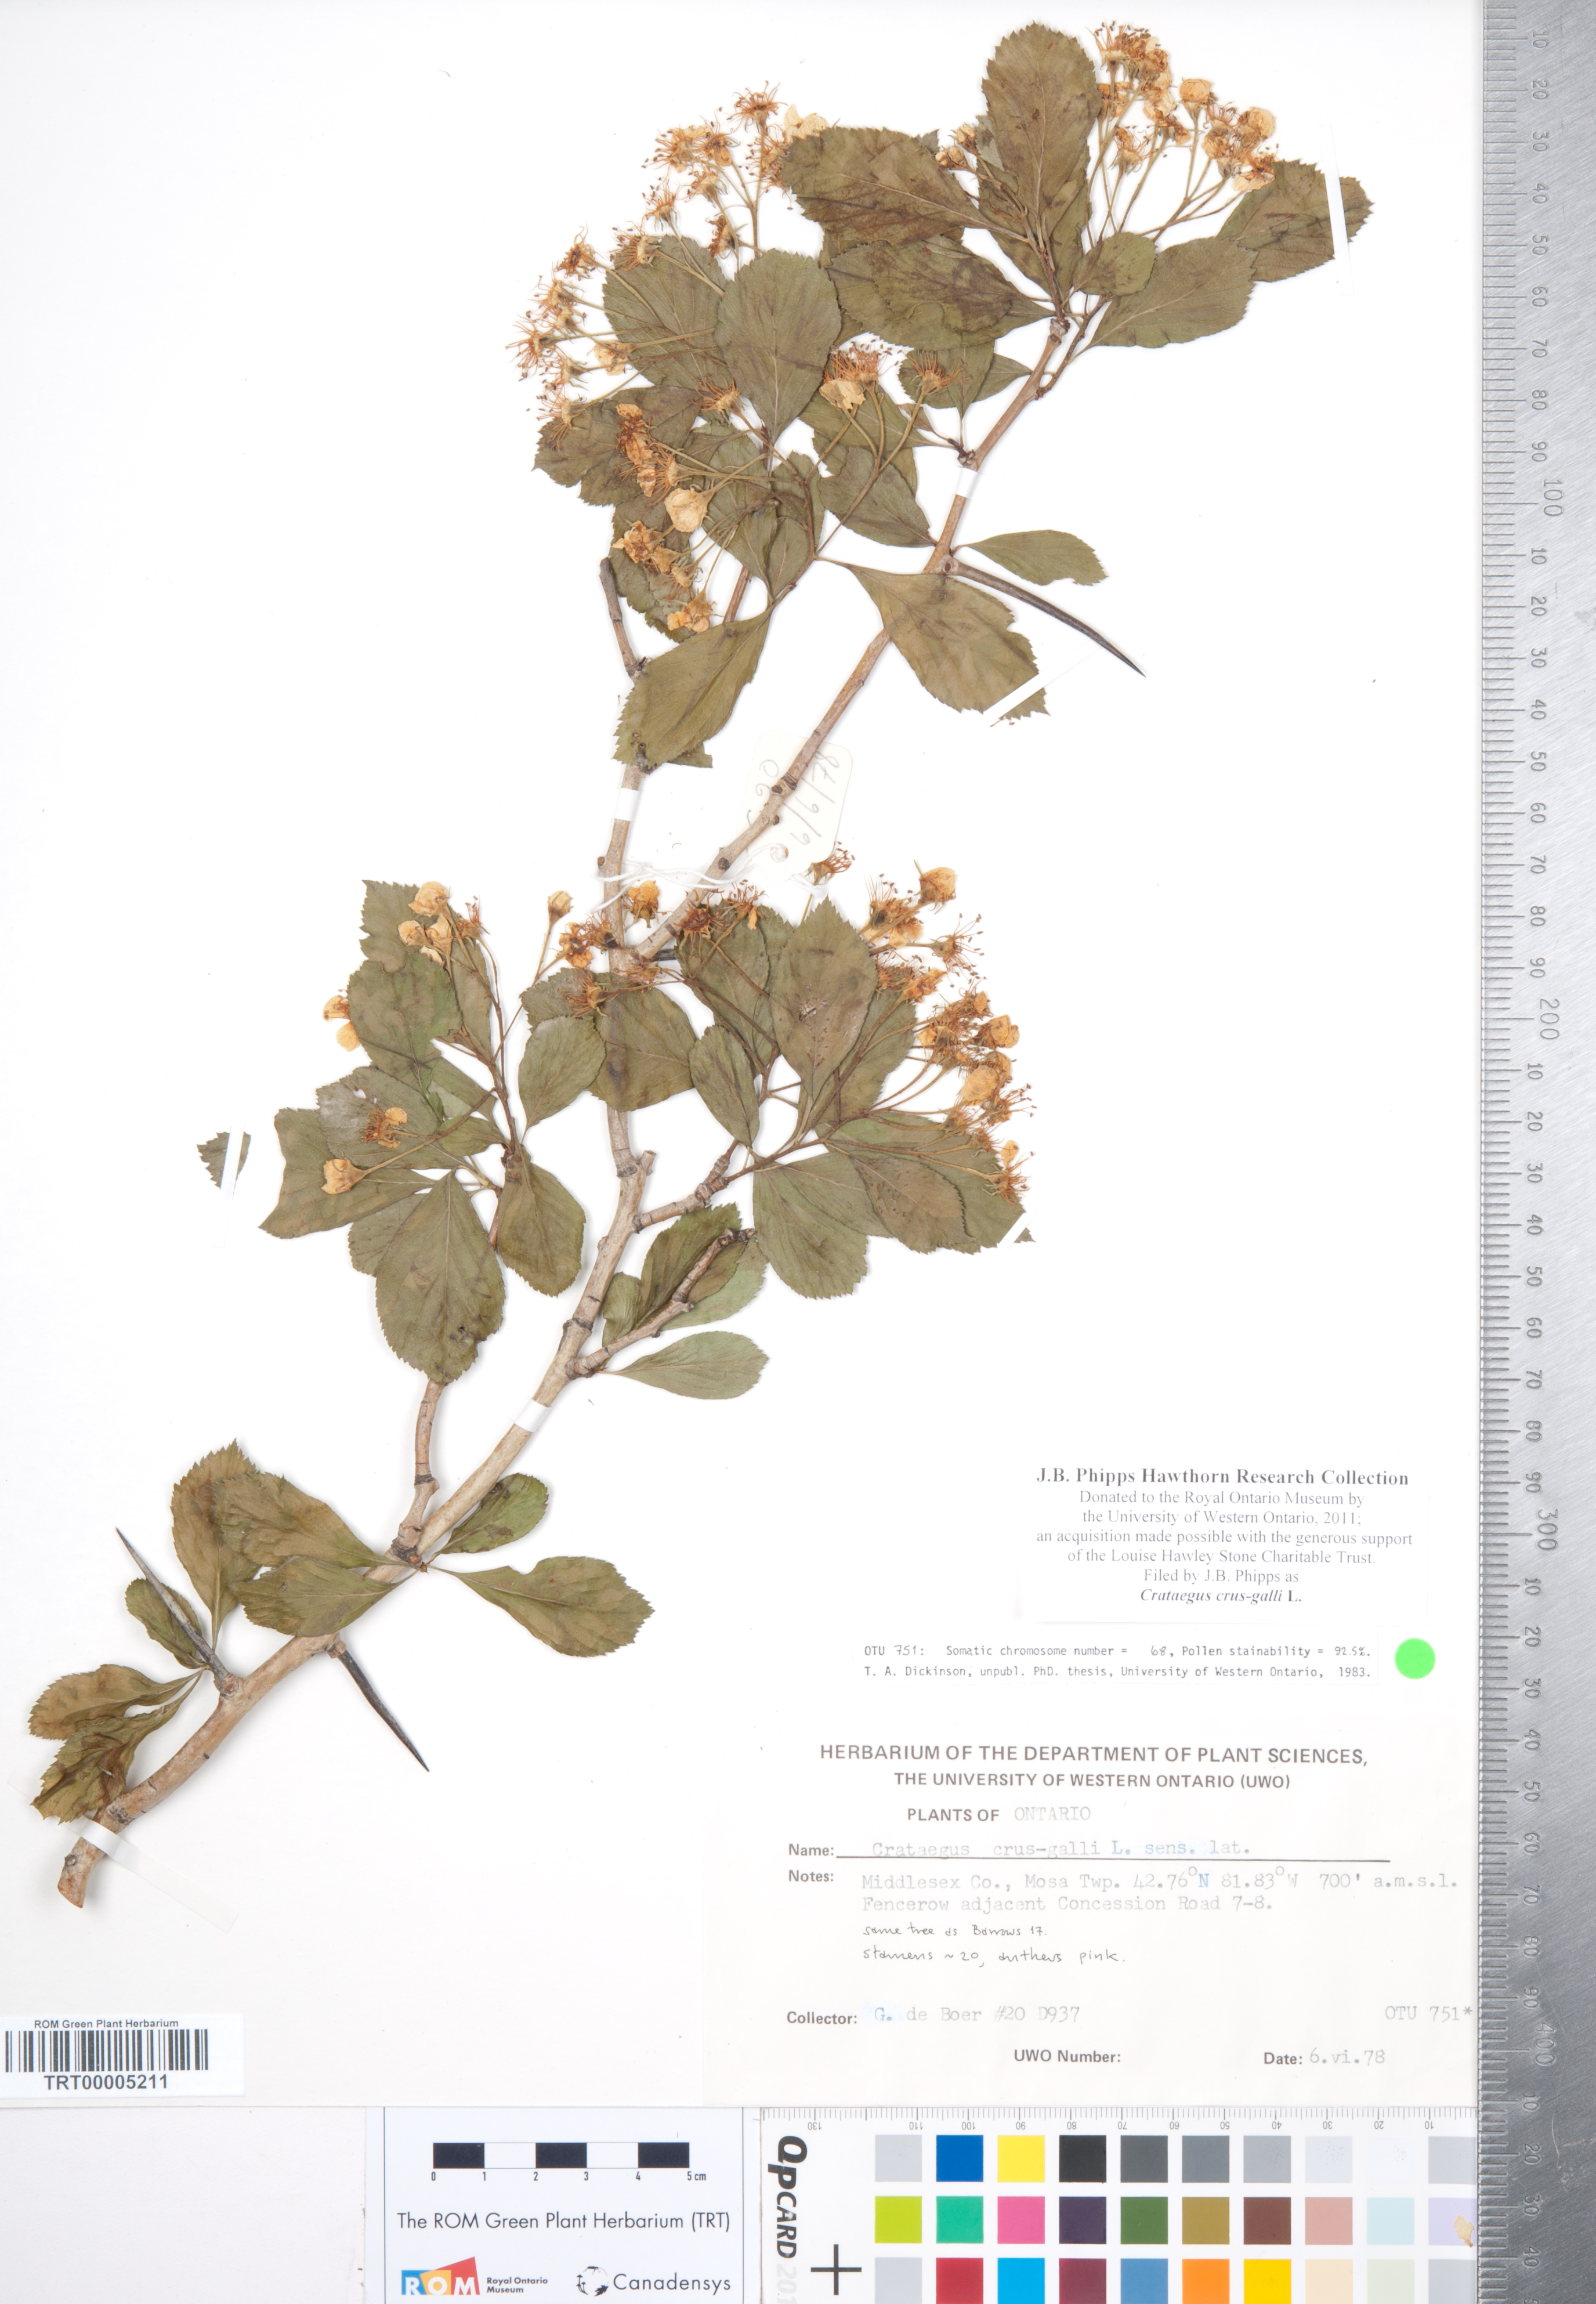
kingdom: Plantae
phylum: Tracheophyta
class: Magnoliopsida
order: Rosales
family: Rosaceae
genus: Crataegus
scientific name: Crataegus crus-galli
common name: Cockspurthorn
